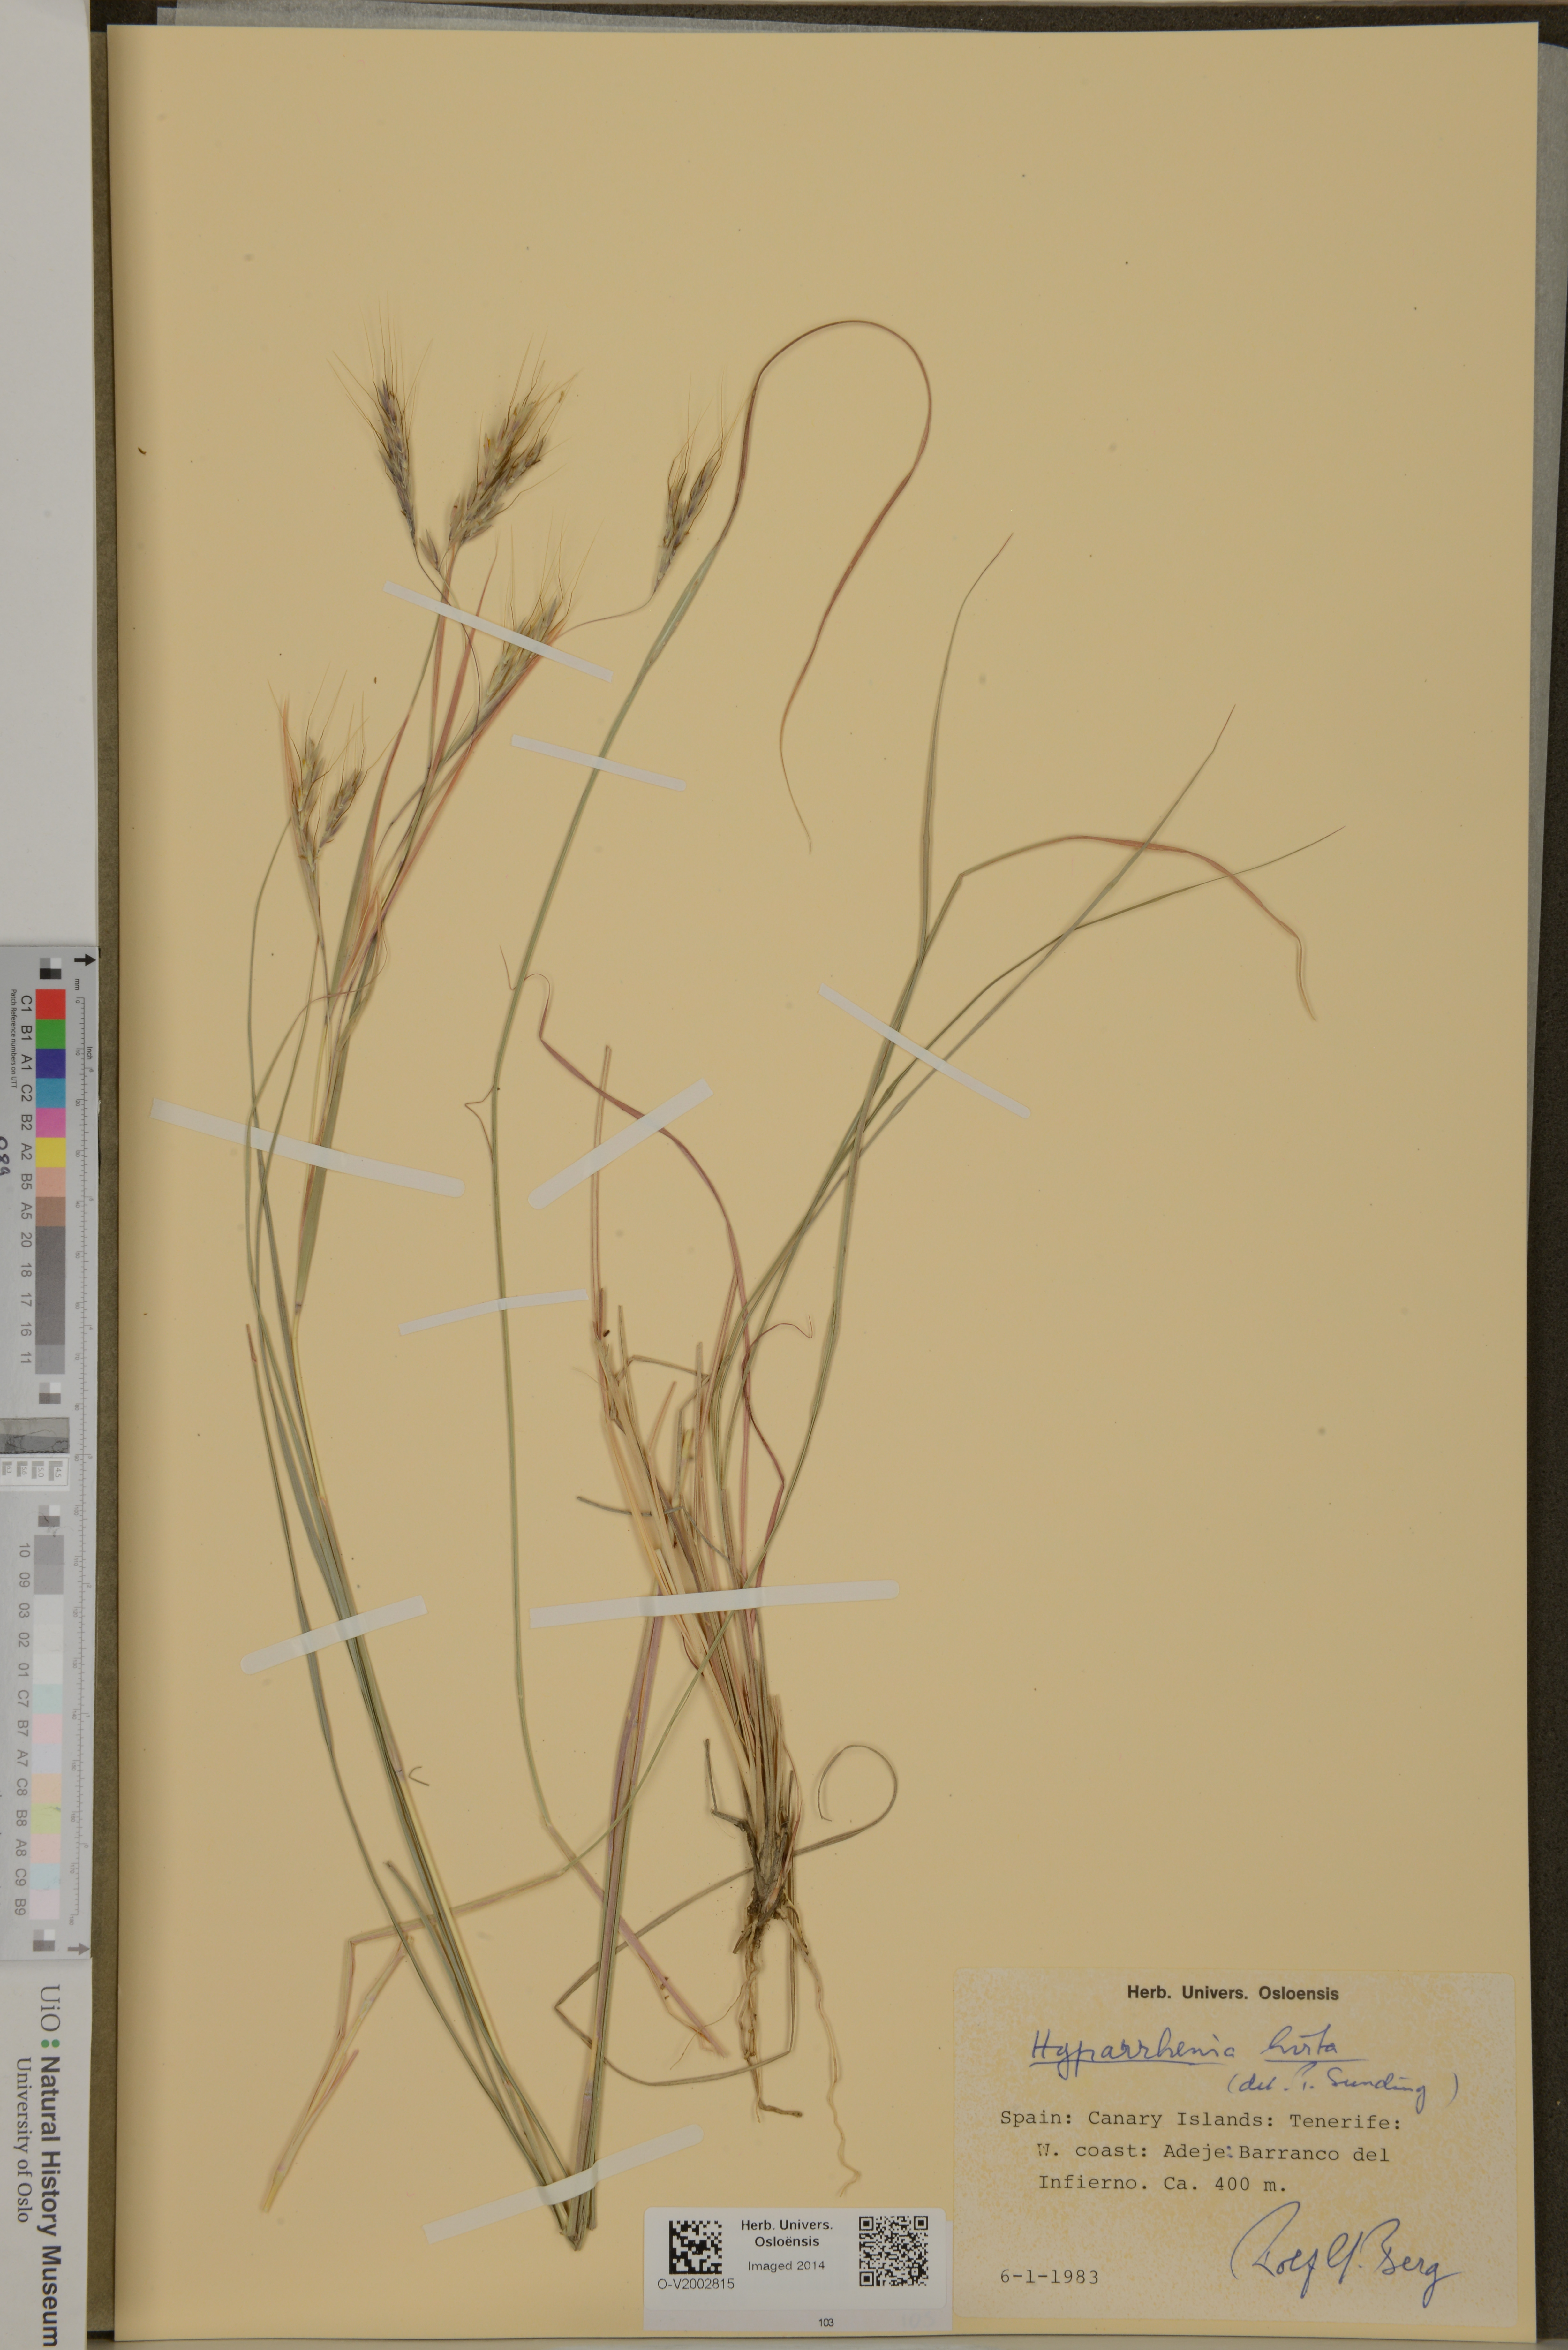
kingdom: Plantae
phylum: Tracheophyta
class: Liliopsida
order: Poales
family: Poaceae
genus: Hyparrhenia
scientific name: Hyparrhenia hirta
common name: Thatching grass
